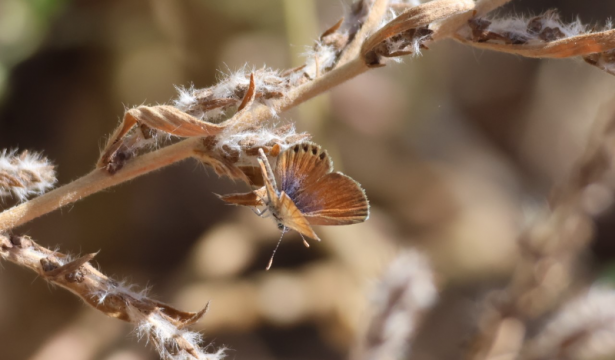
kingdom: Animalia
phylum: Arthropoda
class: Insecta
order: Lepidoptera
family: Lycaenidae
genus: Brephidium
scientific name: Brephidium exilis
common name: Western Pygmy-Blue
